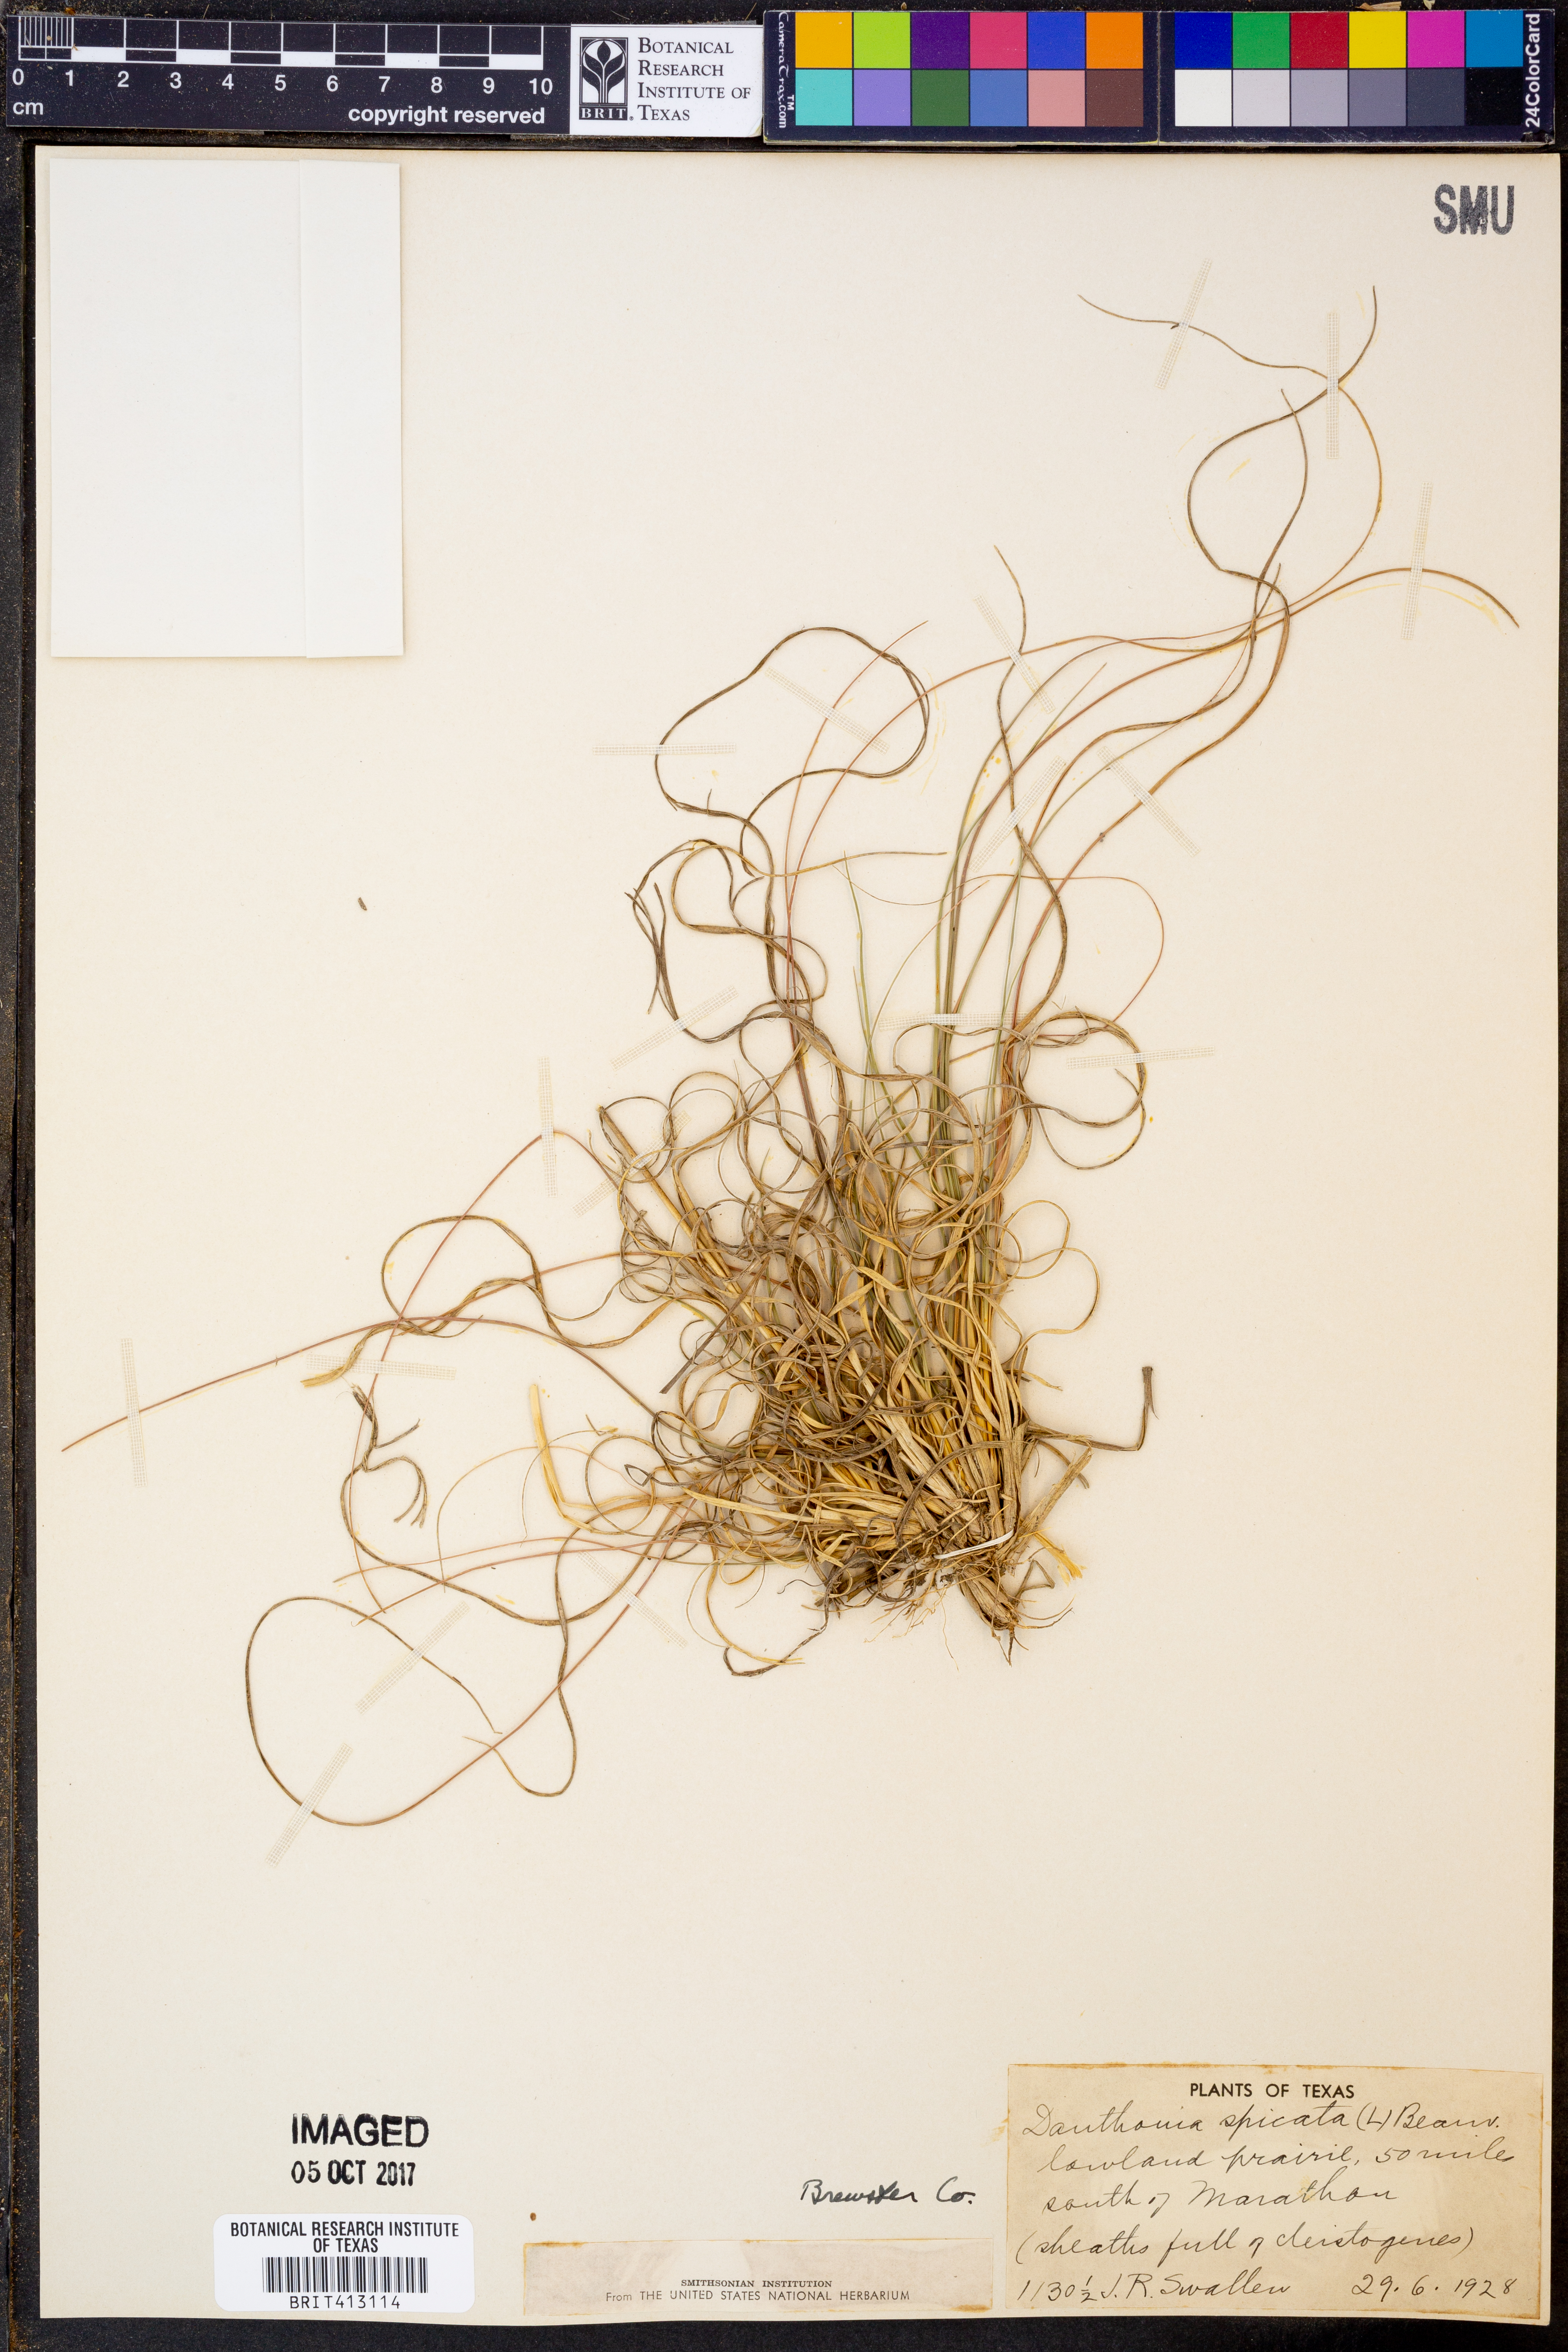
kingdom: Plantae
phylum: Tracheophyta
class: Liliopsida
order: Poales
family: Poaceae
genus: Danthonia
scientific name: Danthonia spicata
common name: Common wild oatgrass
